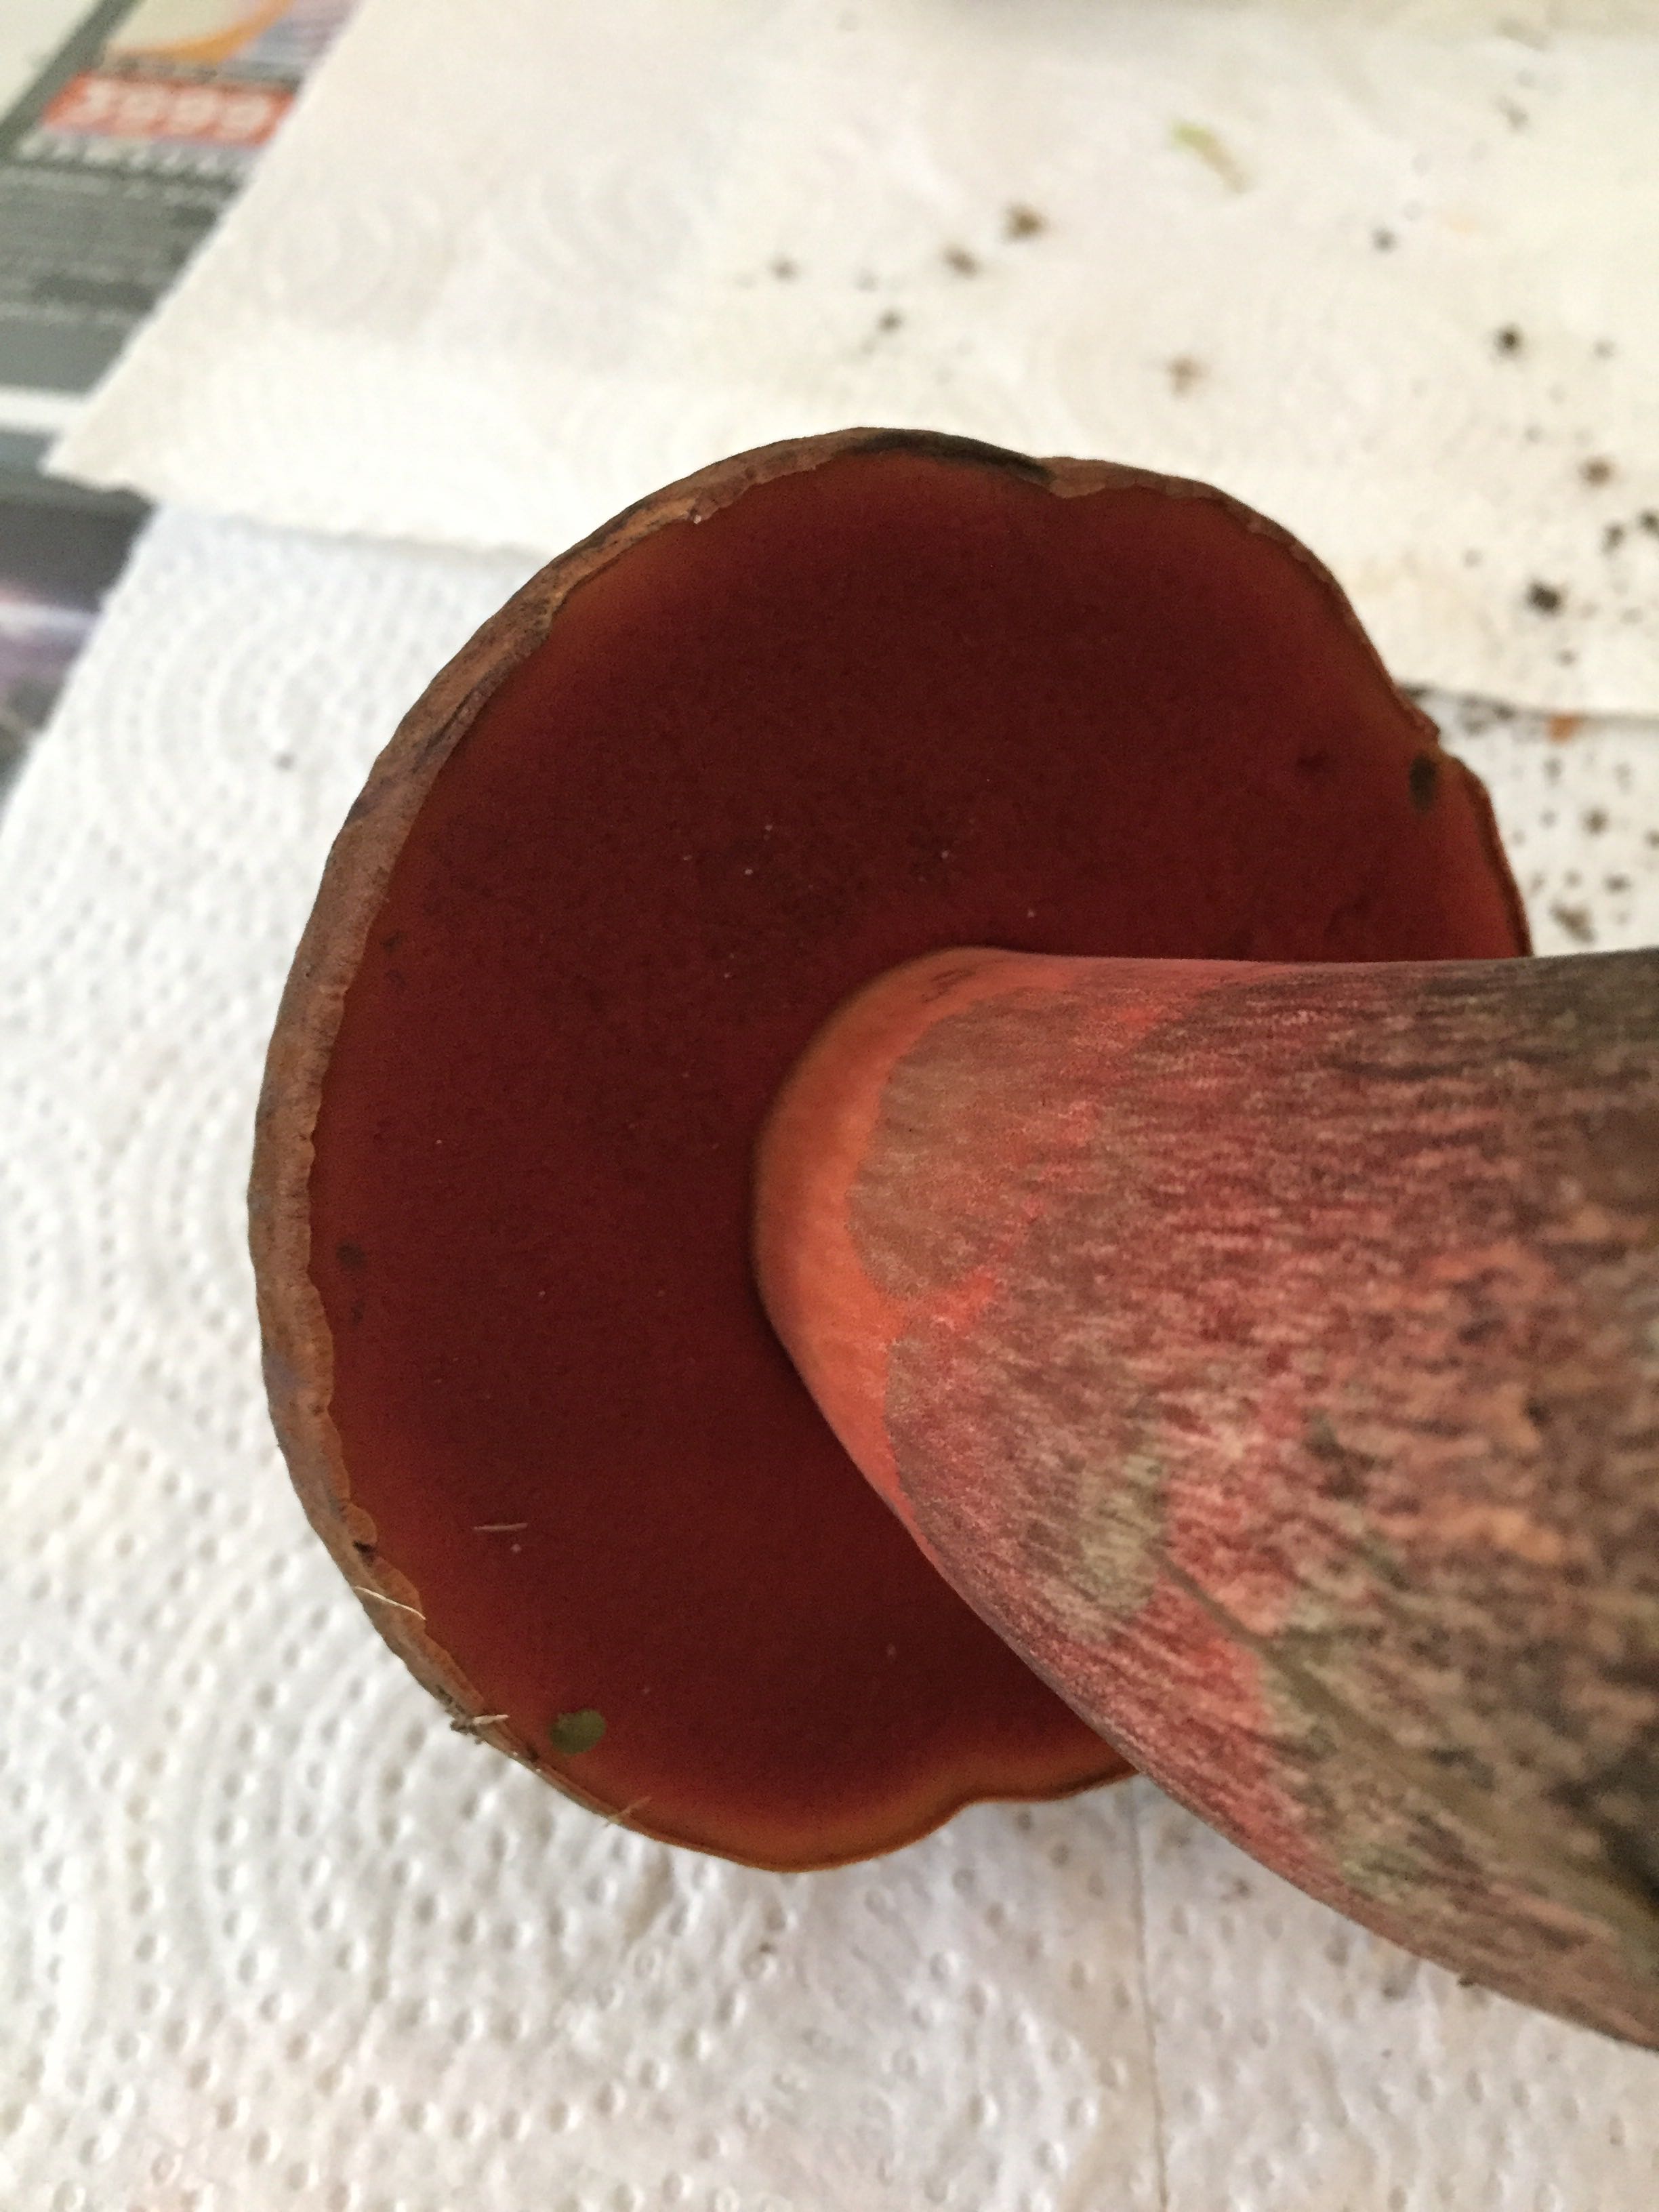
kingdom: Fungi
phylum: Basidiomycota
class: Agaricomycetes
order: Boletales
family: Boletaceae
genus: Neoboletus
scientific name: Neoboletus erythropus
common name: punktstokket indigorørhat
